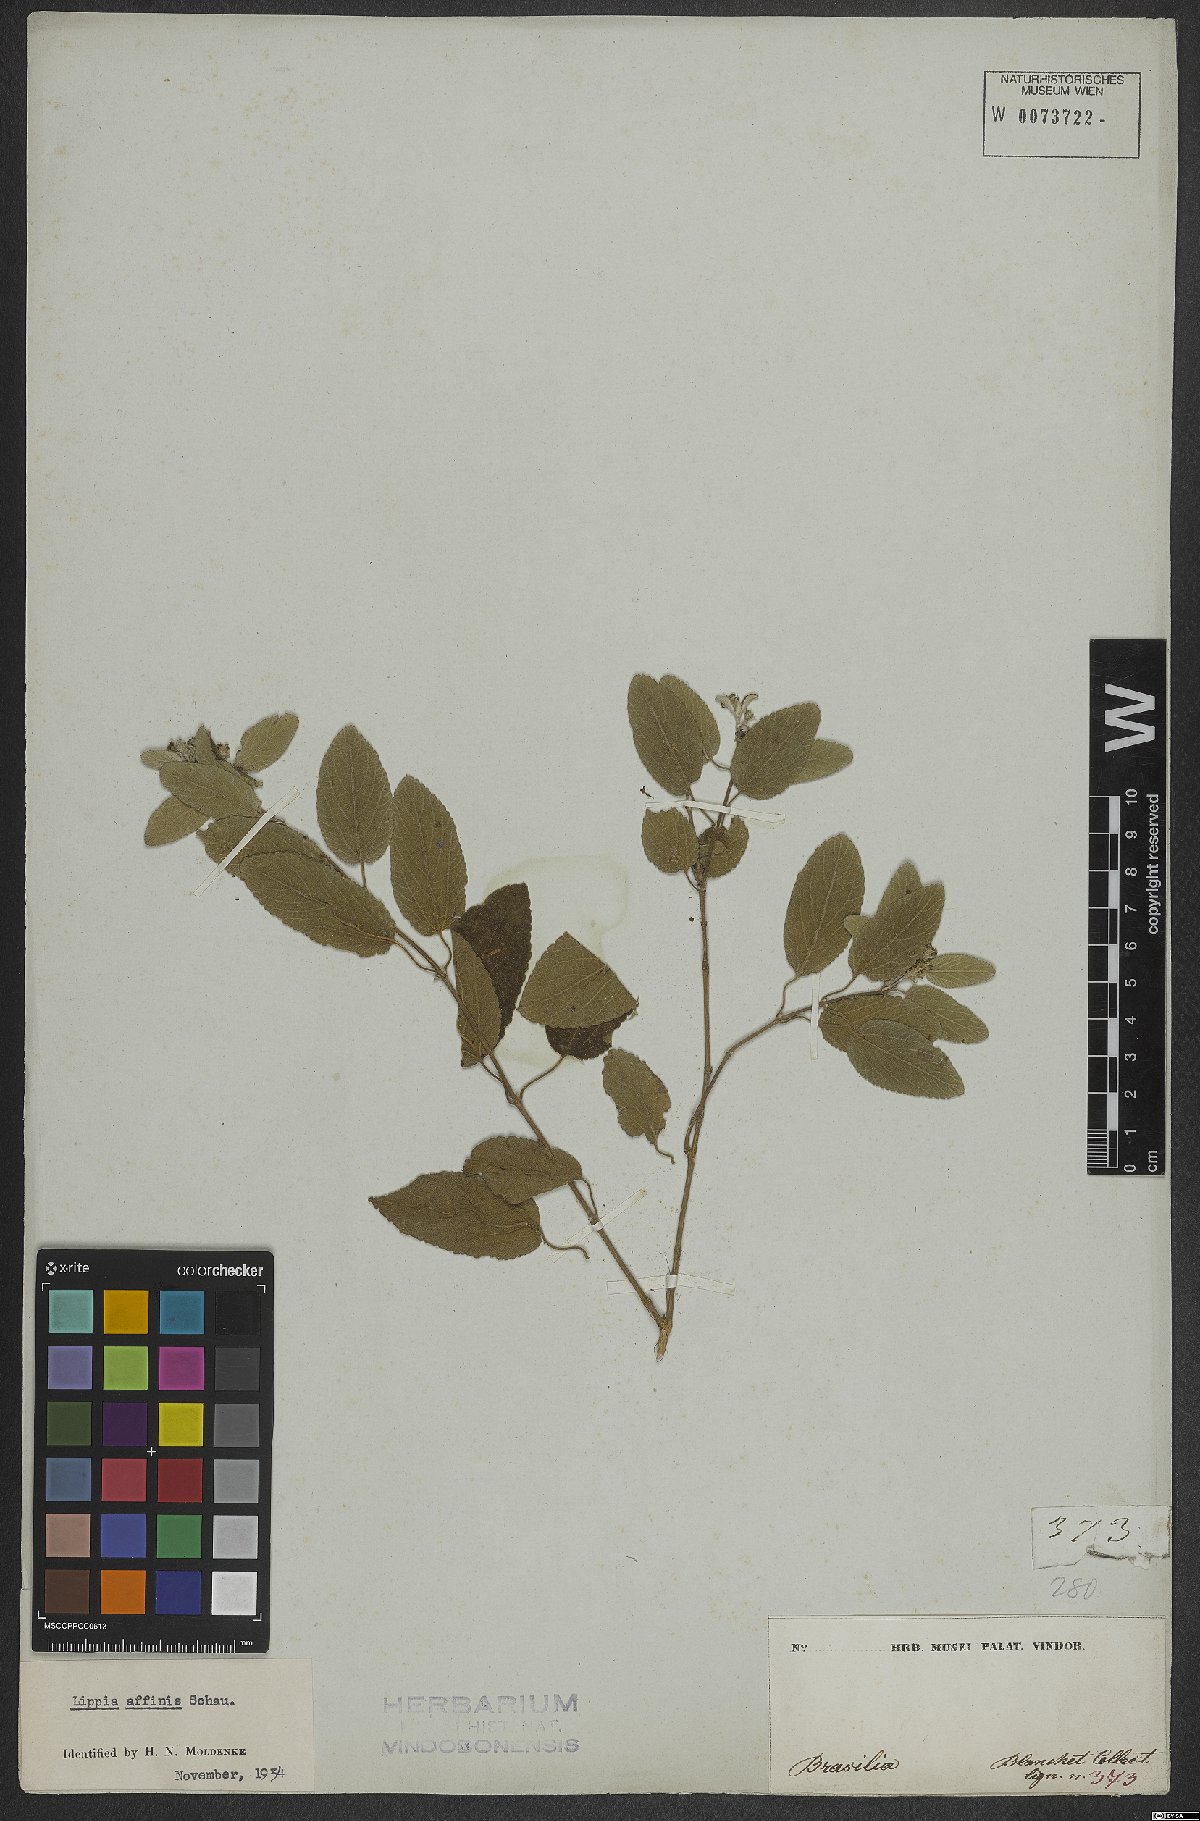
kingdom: Plantae
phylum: Tracheophyta
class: Magnoliopsida
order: Lamiales
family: Verbenaceae
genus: Lippia
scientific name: Lippia origanoides
